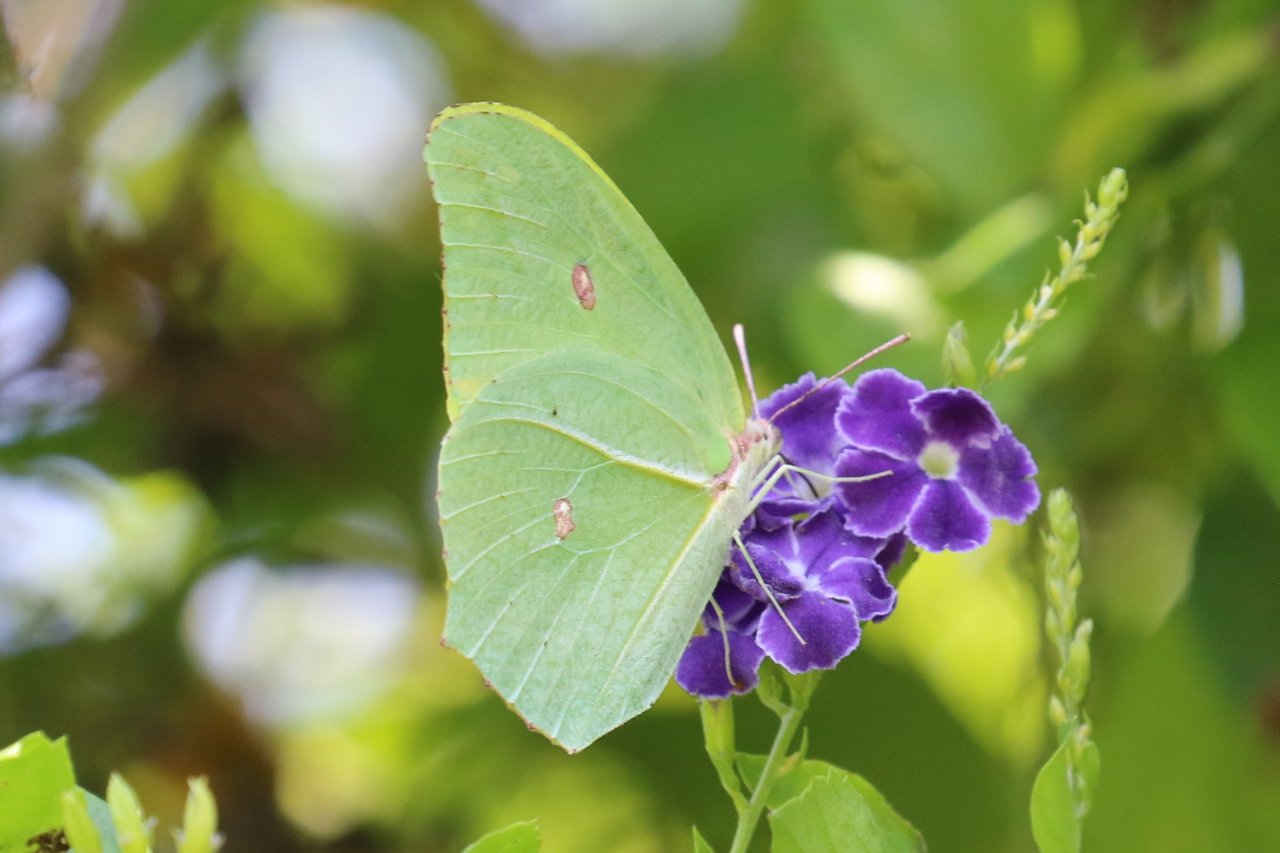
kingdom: Animalia
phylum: Arthropoda
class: Insecta
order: Lepidoptera
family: Pieridae
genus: Anteos
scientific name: Anteos maerula
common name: Yellow Angled-Sulphur
